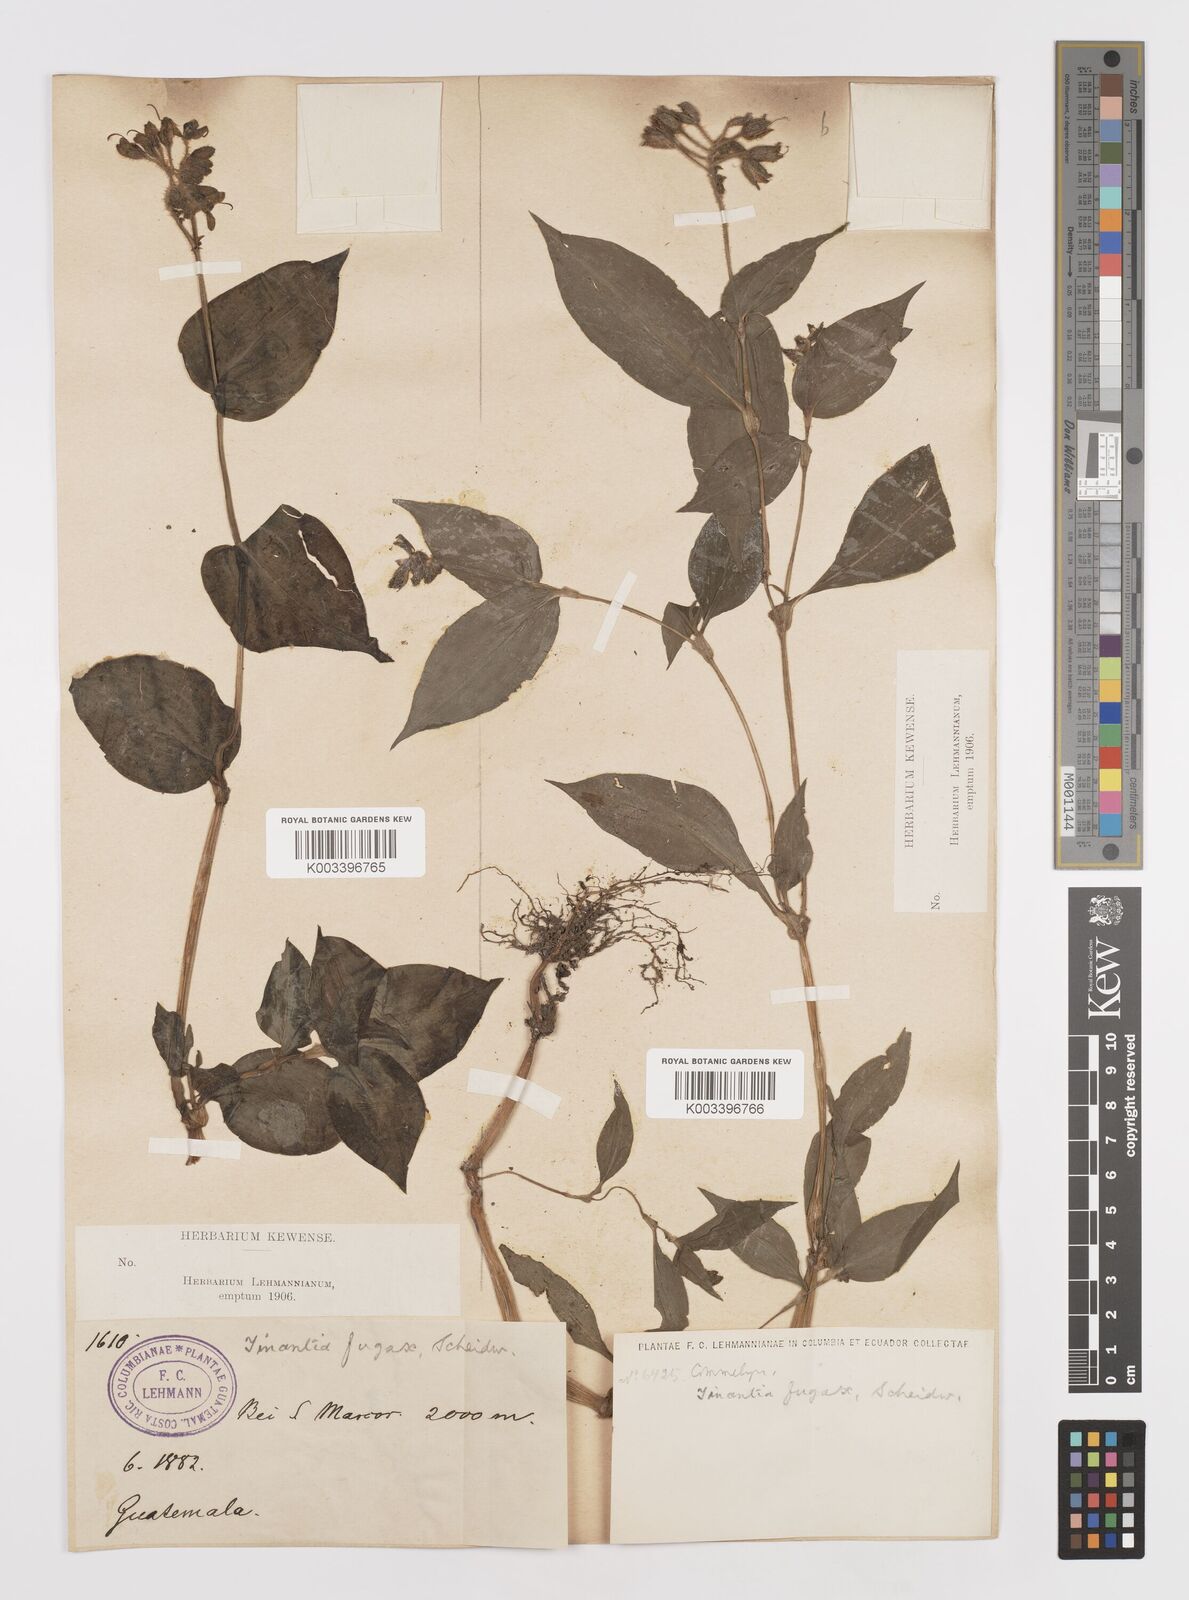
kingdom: Plantae
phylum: Tracheophyta
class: Liliopsida
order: Commelinales
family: Commelinaceae
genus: Tinantia
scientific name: Tinantia erecta
